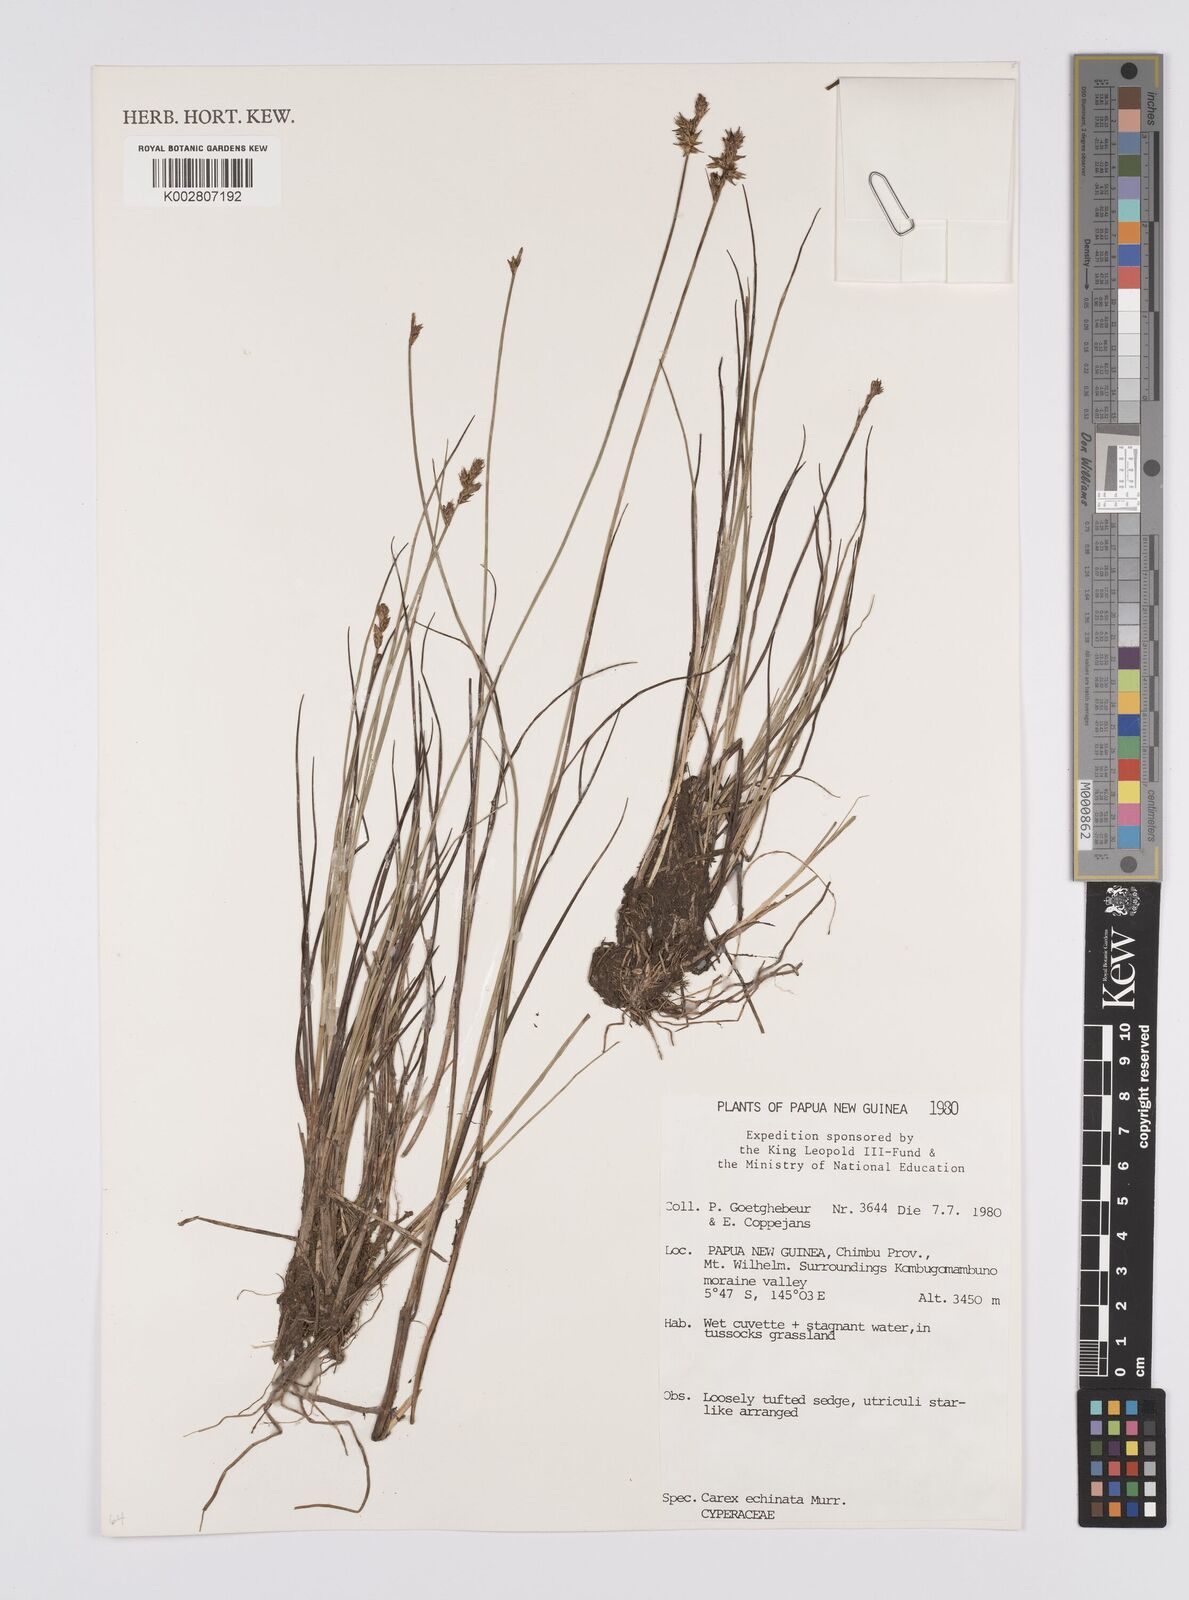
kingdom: Plantae
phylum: Tracheophyta
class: Liliopsida
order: Poales
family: Cyperaceae
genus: Carex
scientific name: Carex echinata
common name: Star sedge
